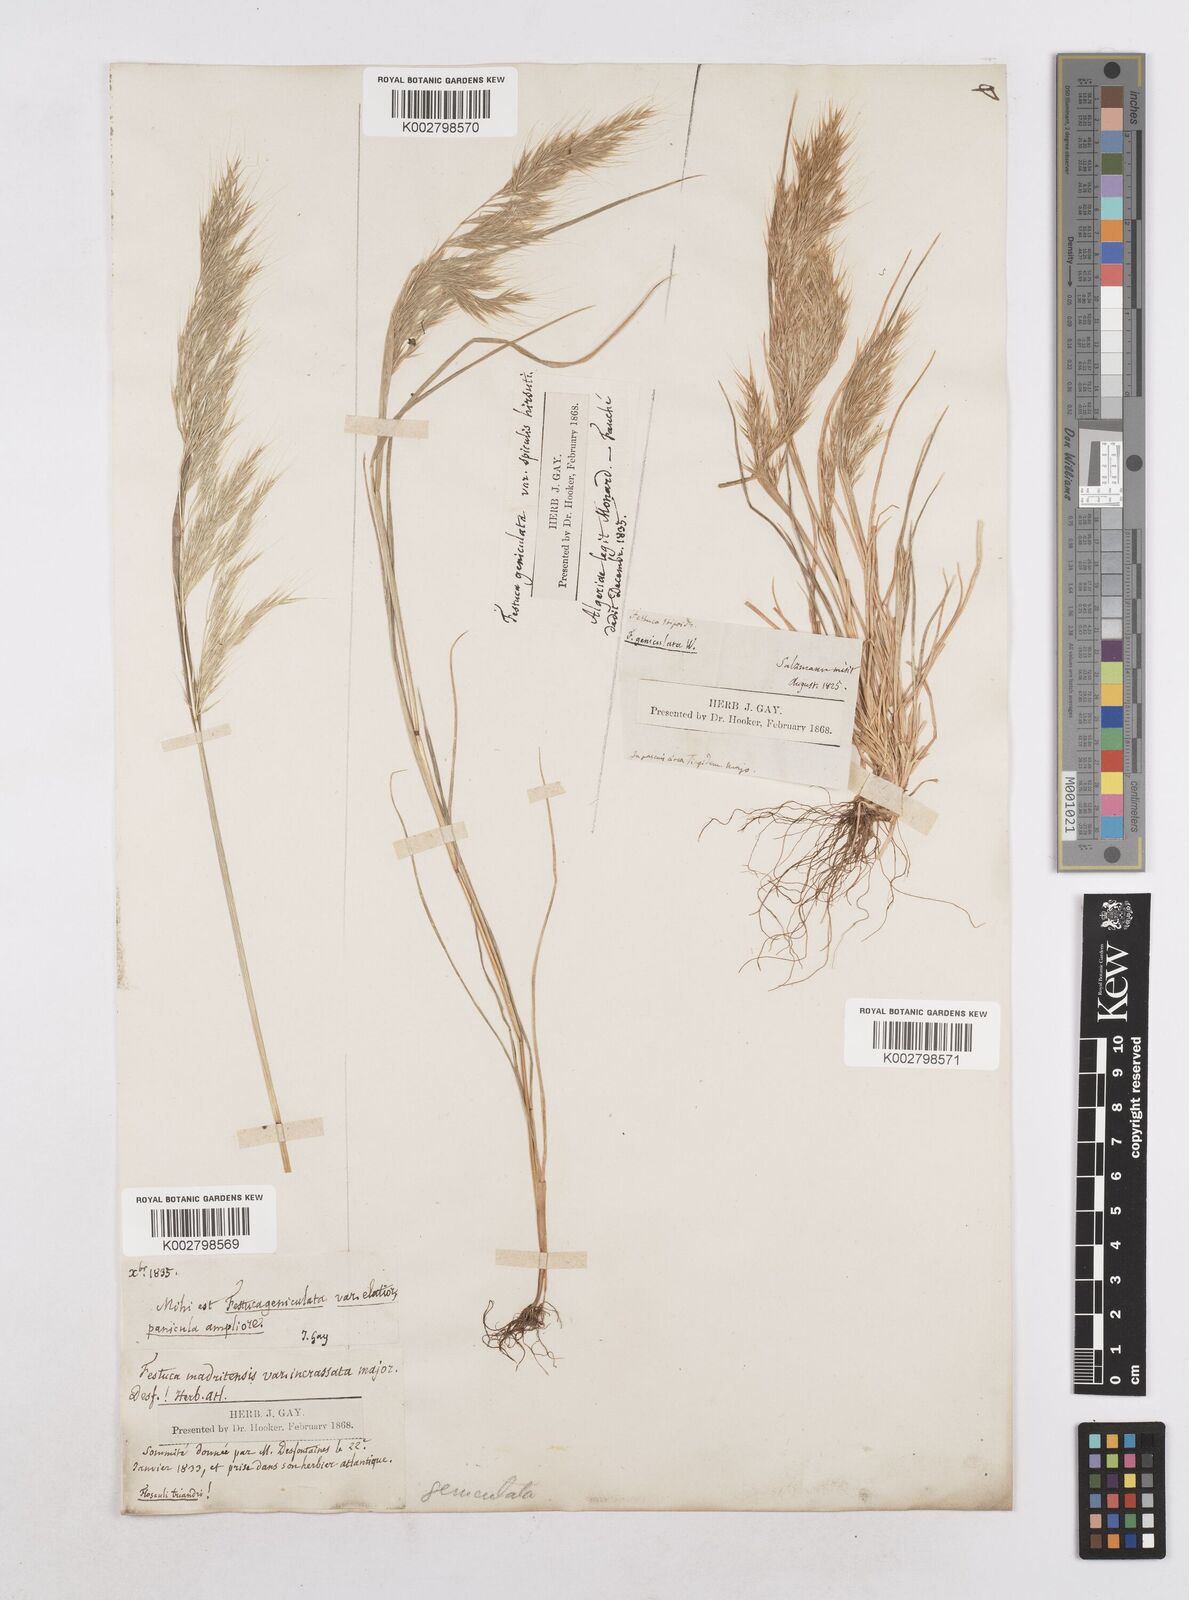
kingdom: Plantae
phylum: Tracheophyta
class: Liliopsida
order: Poales
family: Poaceae
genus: Festuca
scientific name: Festuca geniculata
